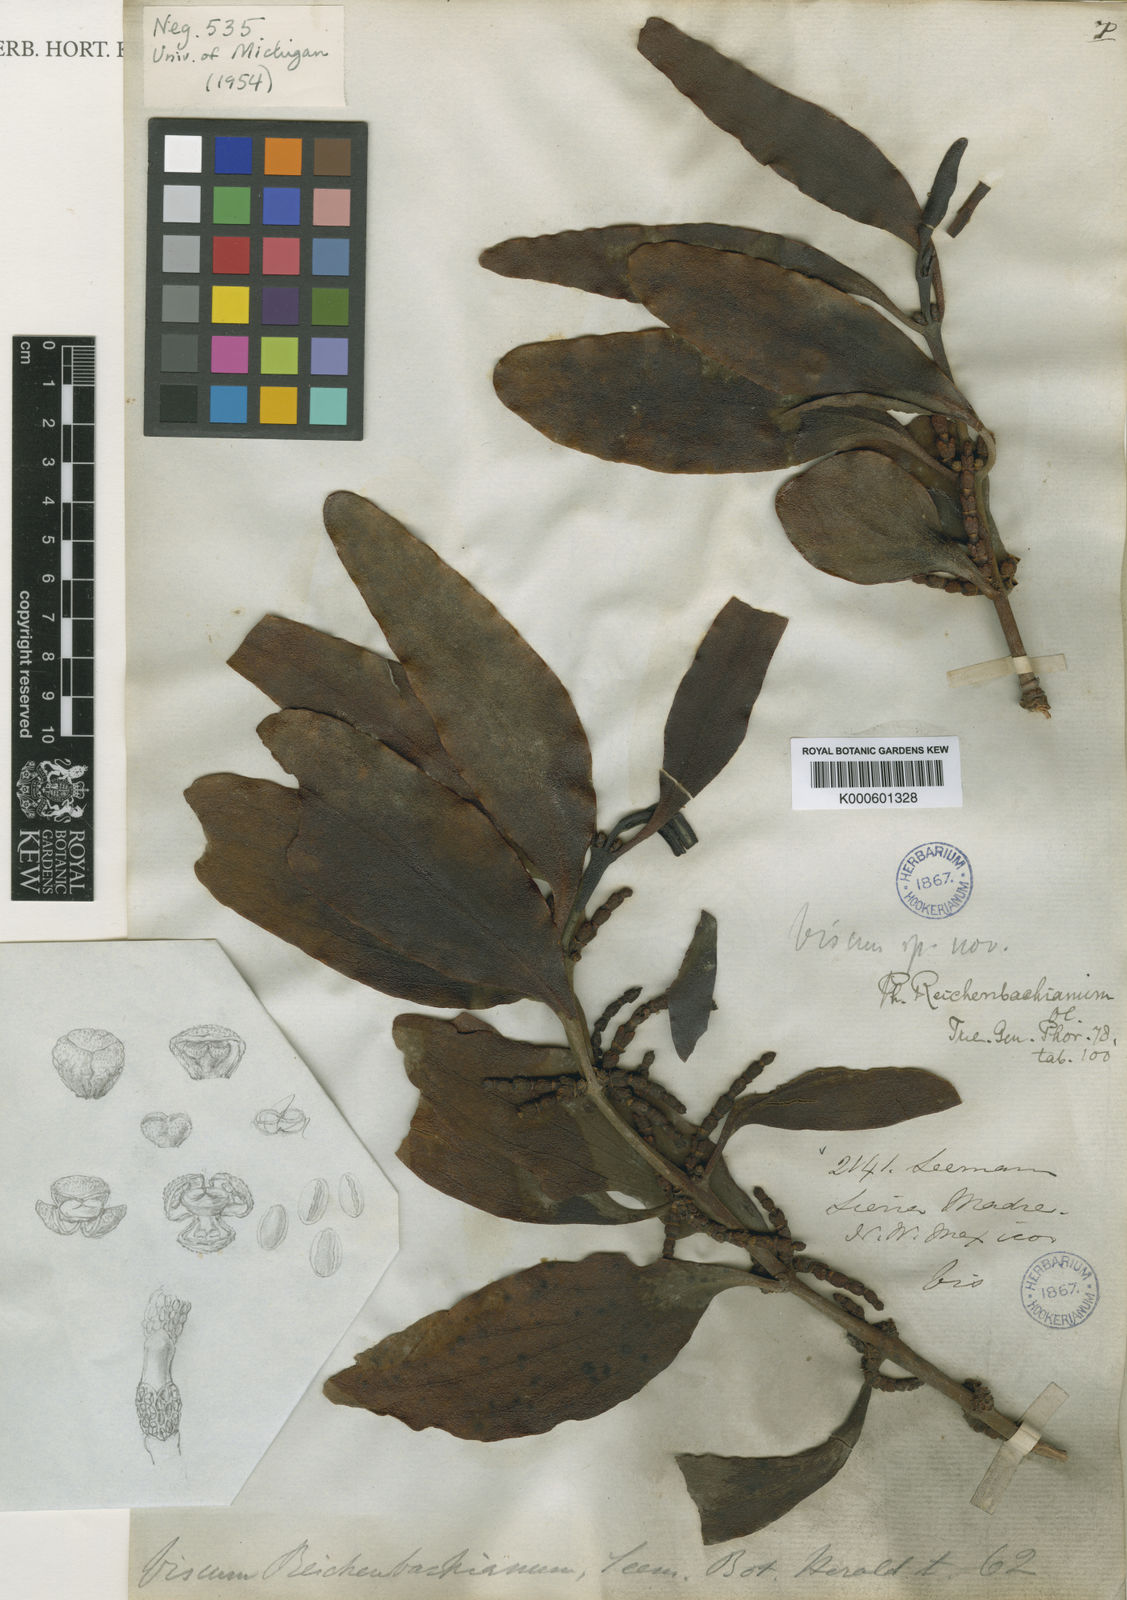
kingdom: Plantae
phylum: Tracheophyta
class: Magnoliopsida
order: Santalales
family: Viscaceae
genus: Phoradendron
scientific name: Phoradendron reichenbachianum
